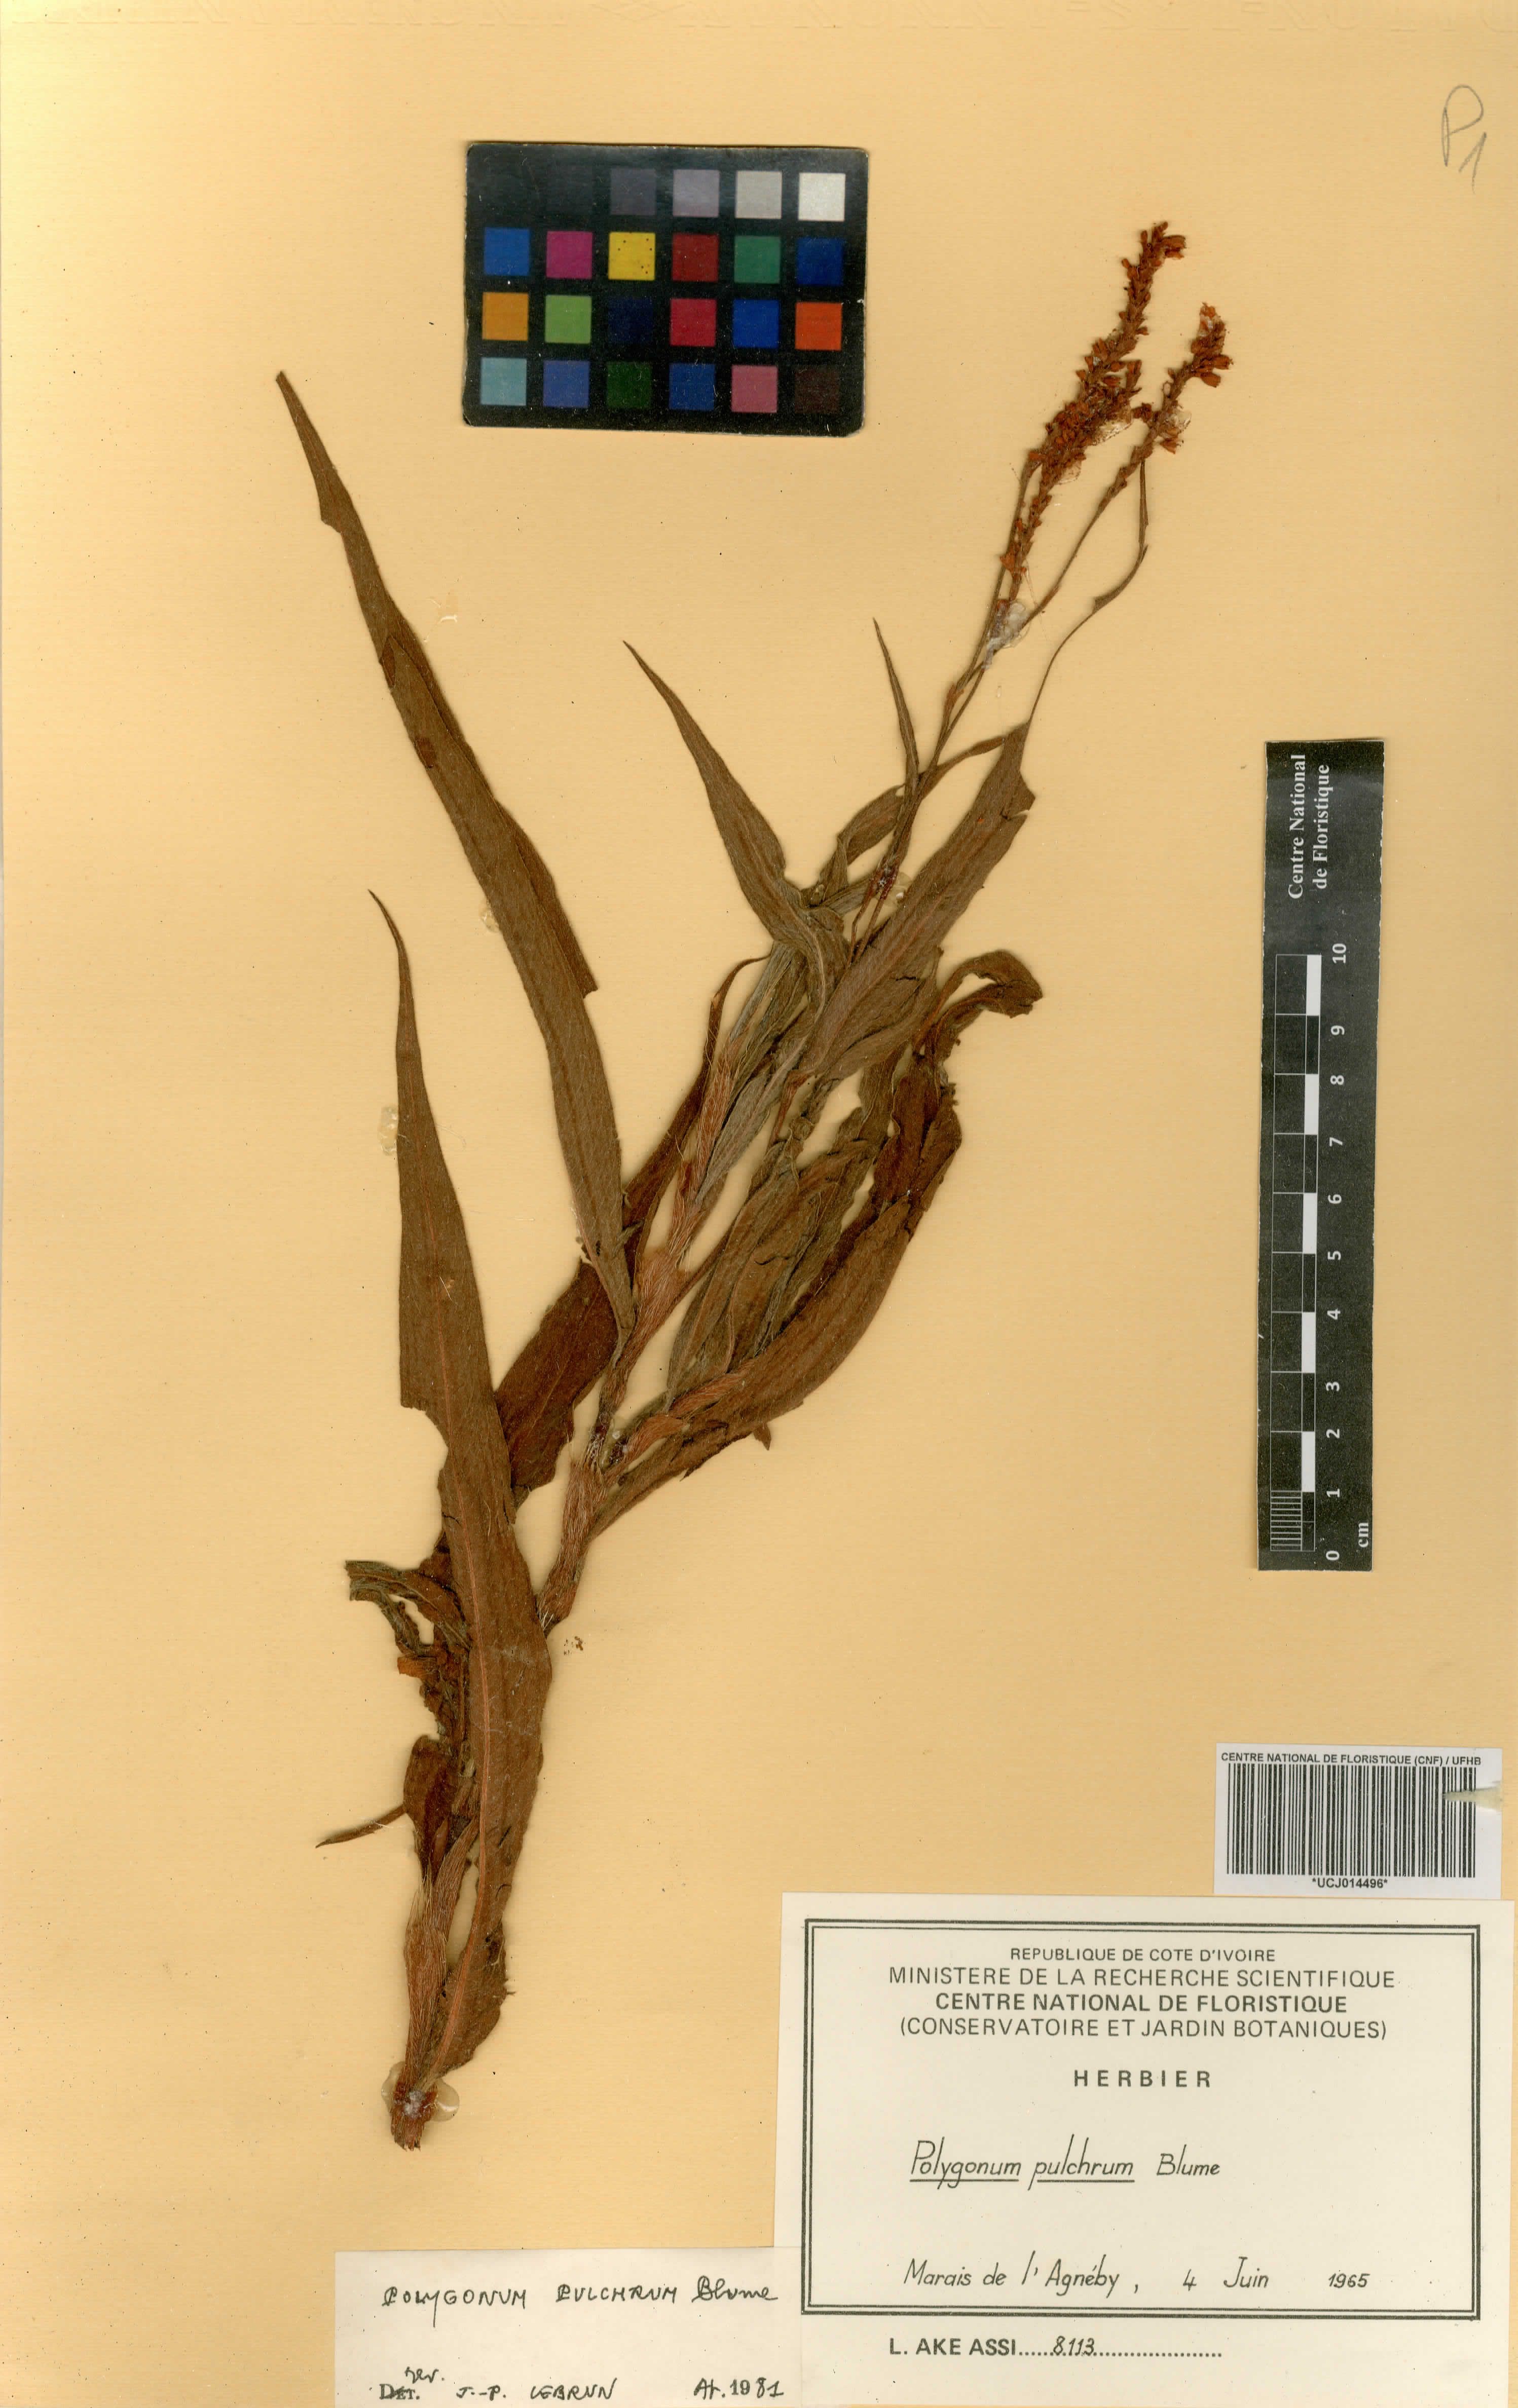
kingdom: Plantae
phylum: Tracheophyta
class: Magnoliopsida
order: Caryophyllales
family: Polygonaceae
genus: Persicaria
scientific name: Persicaria pulchra
